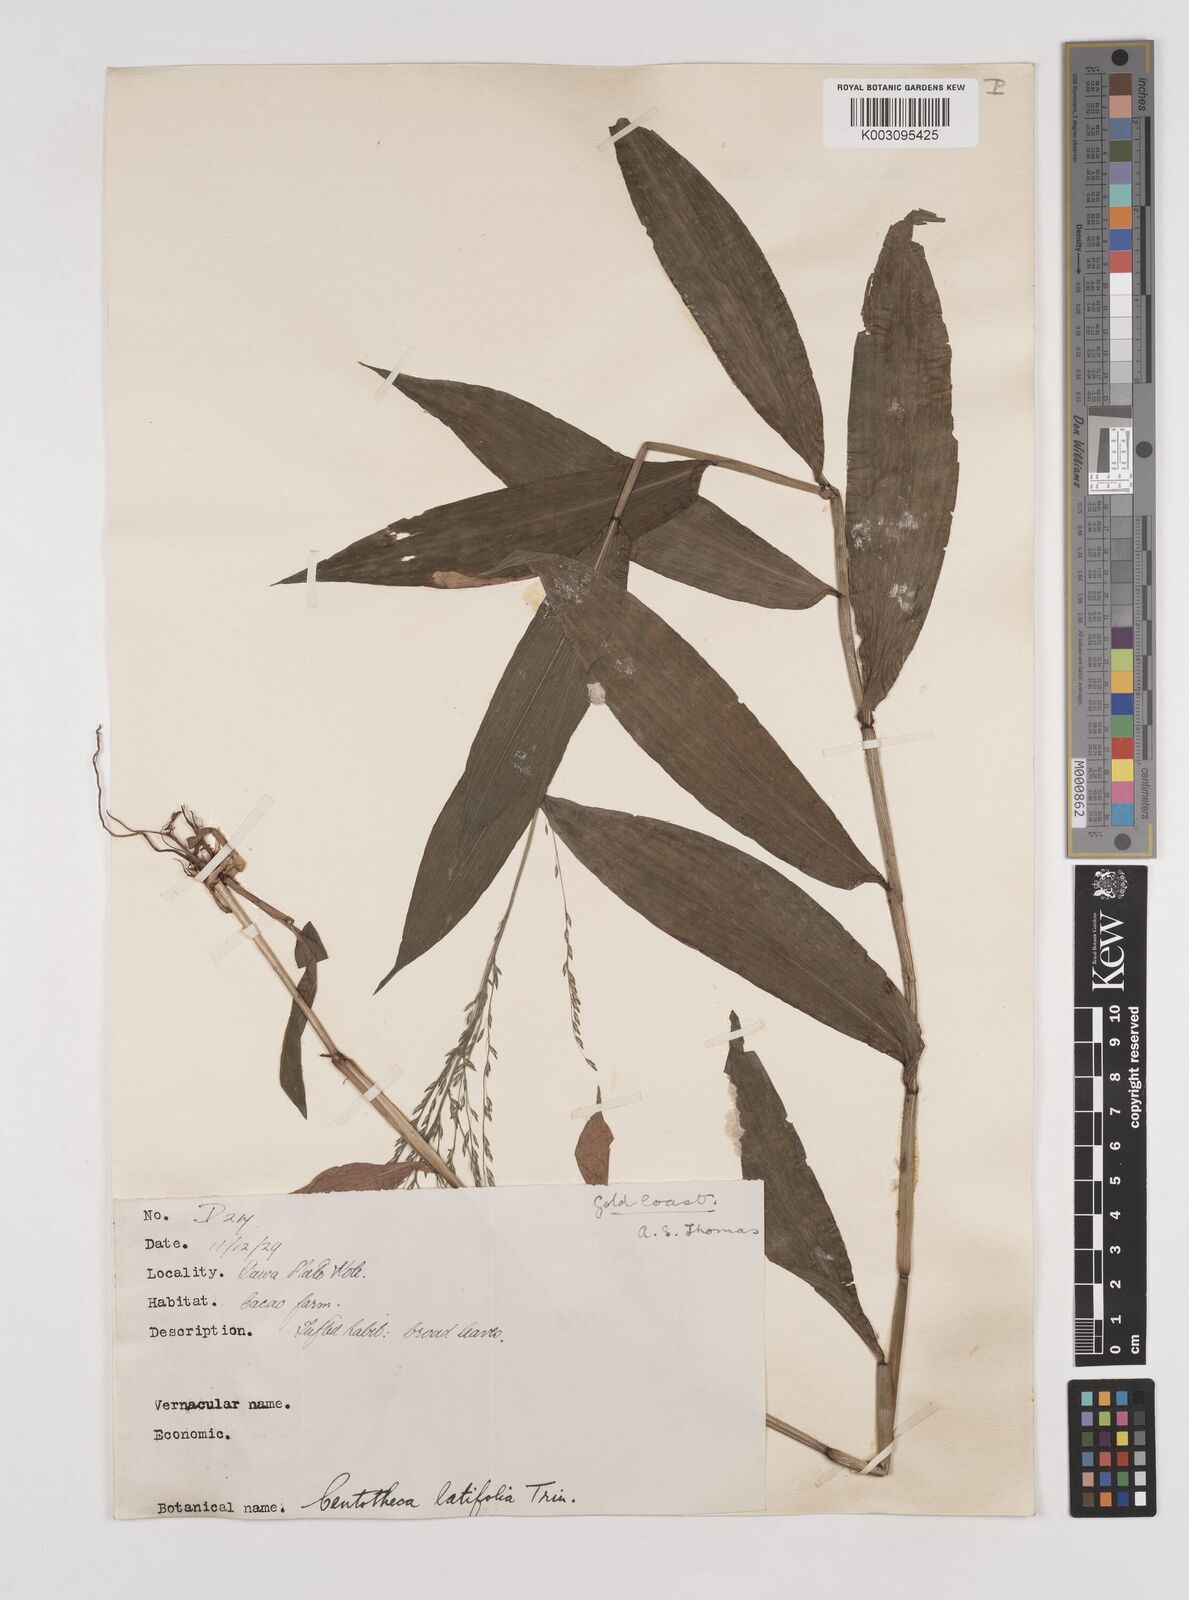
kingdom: Plantae
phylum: Tracheophyta
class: Liliopsida
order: Poales
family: Poaceae
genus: Centotheca
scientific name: Centotheca lappacea
